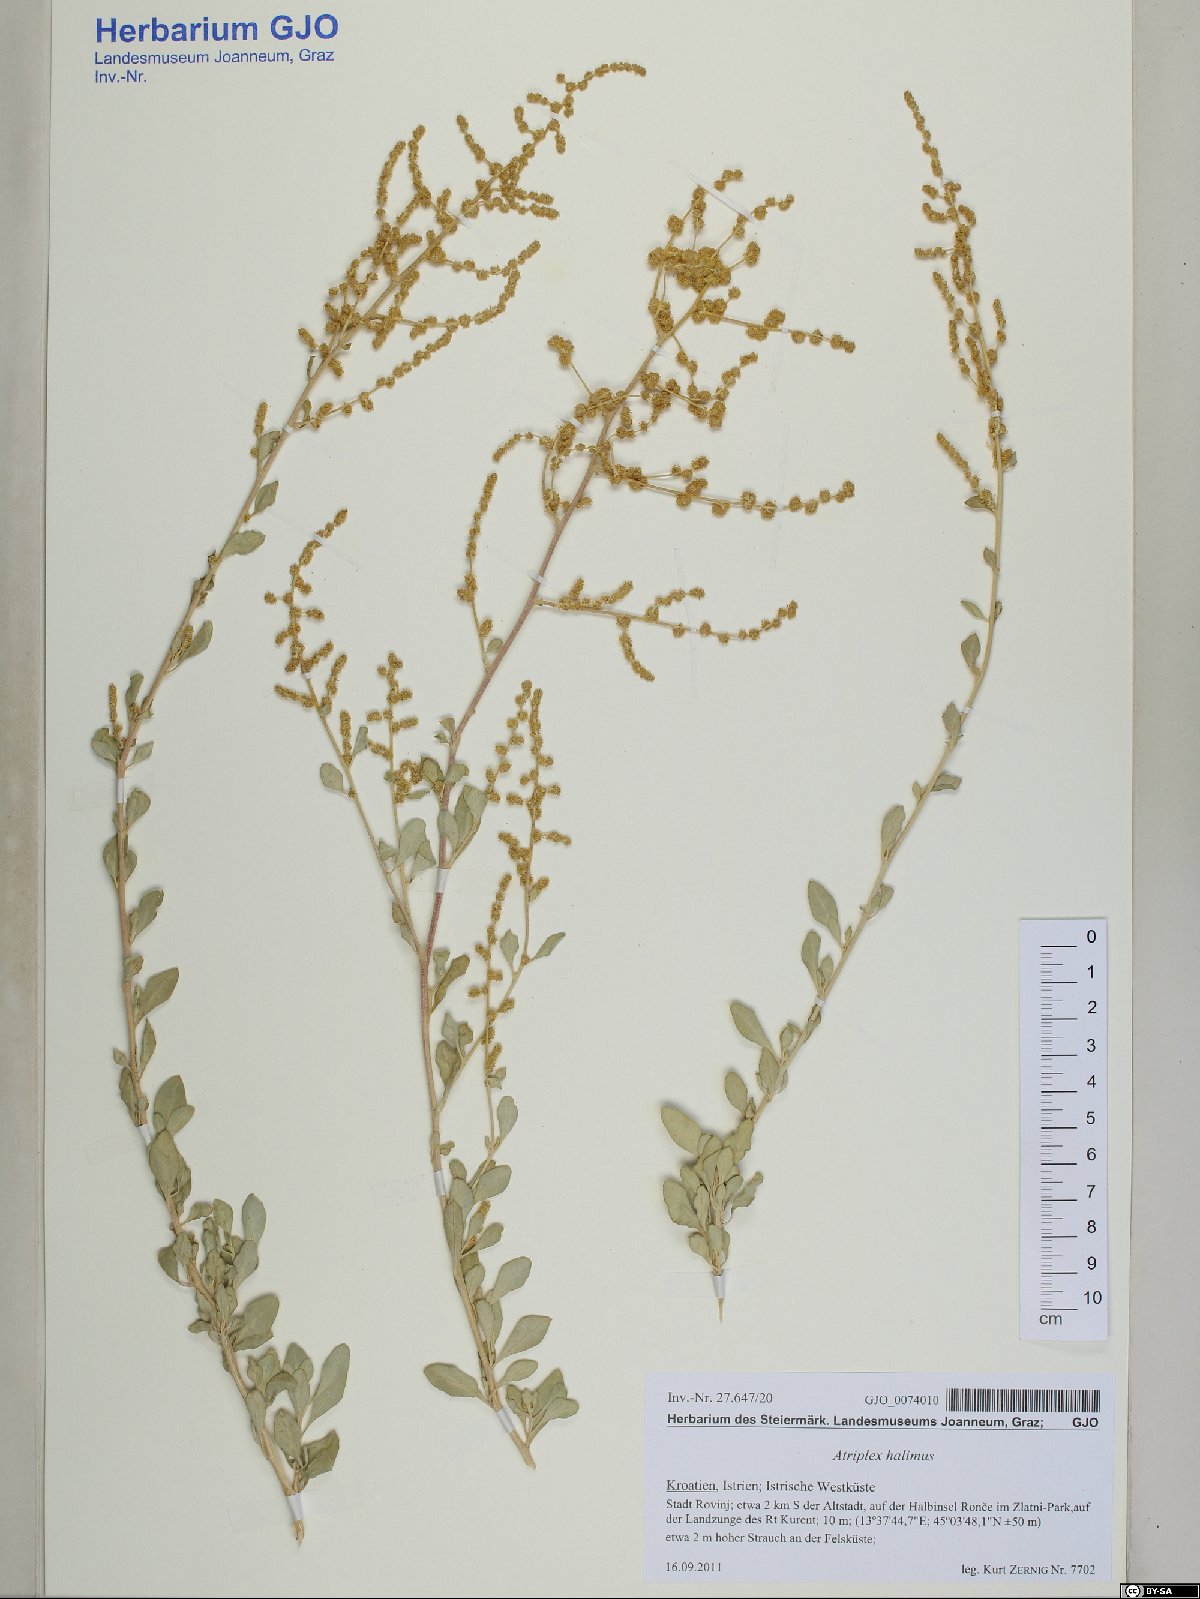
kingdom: Plantae
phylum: Tracheophyta
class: Magnoliopsida
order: Caryophyllales
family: Amaranthaceae
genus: Atriplex
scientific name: Atriplex halimus
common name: Shrubby orache
